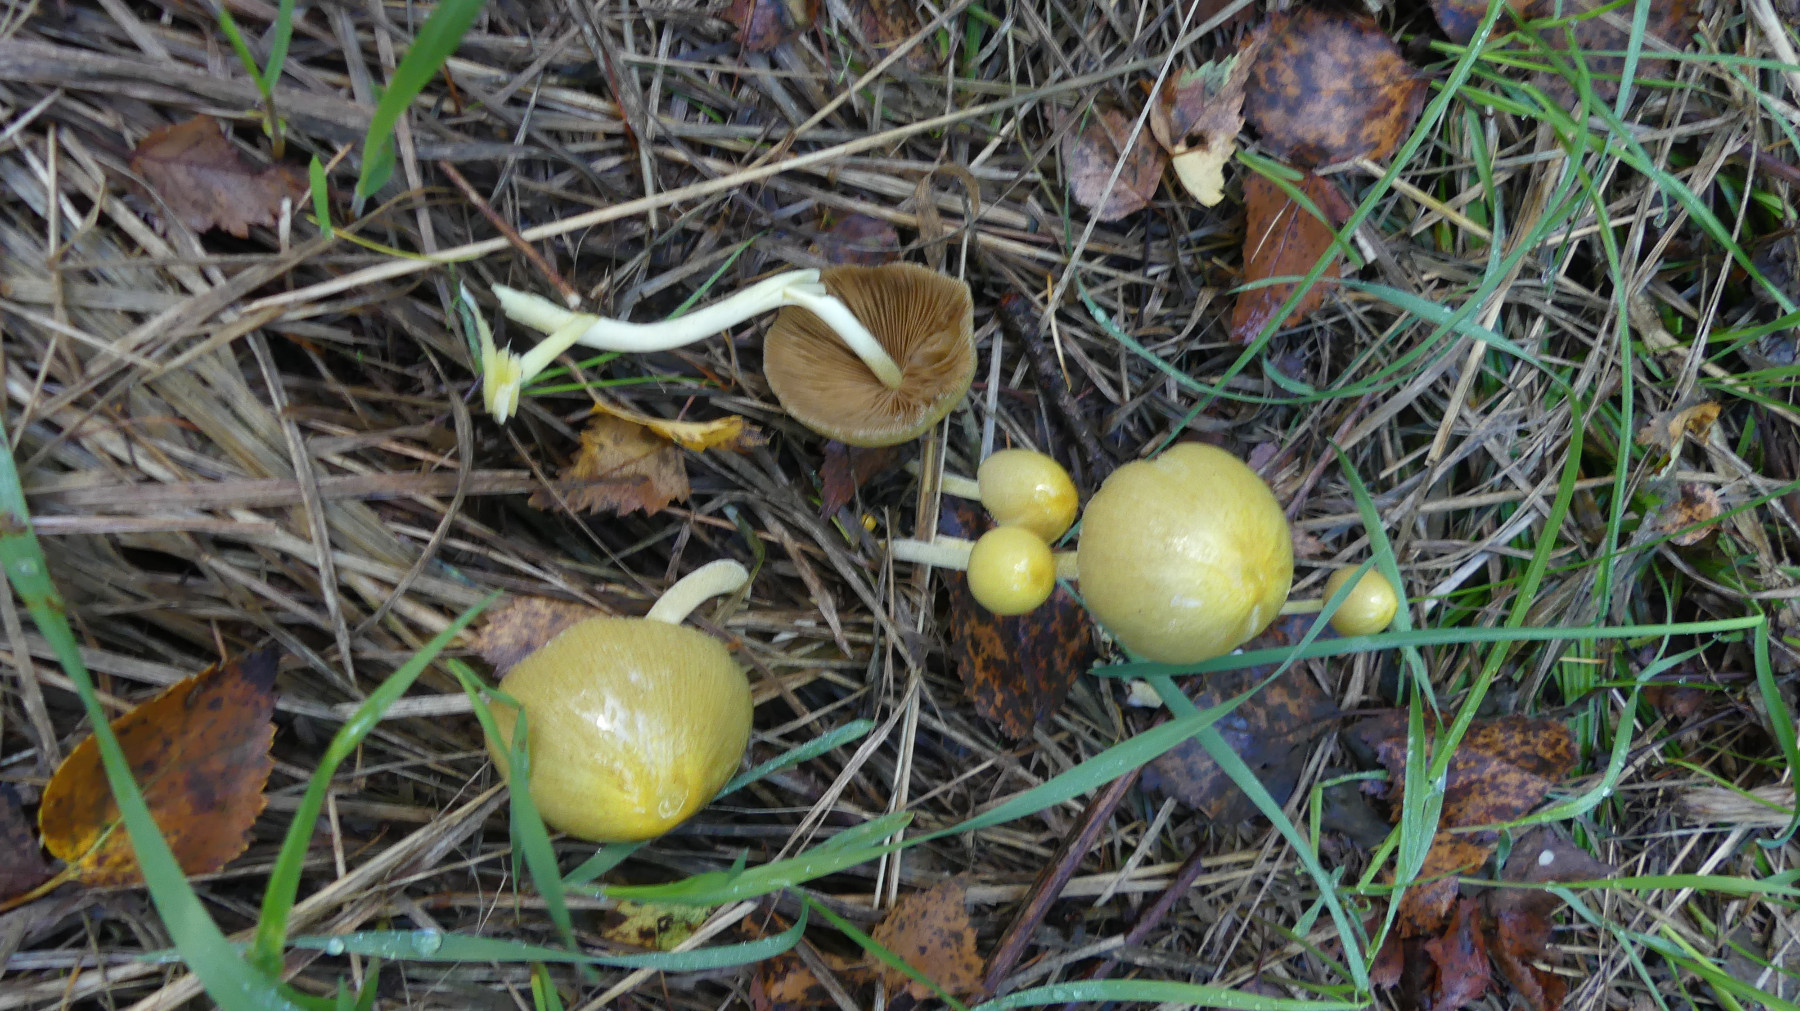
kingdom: Fungi
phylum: Basidiomycota
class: Agaricomycetes
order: Agaricales
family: Bolbitiaceae
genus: Bolbitius
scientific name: Bolbitius titubans
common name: almindelig gulhat
